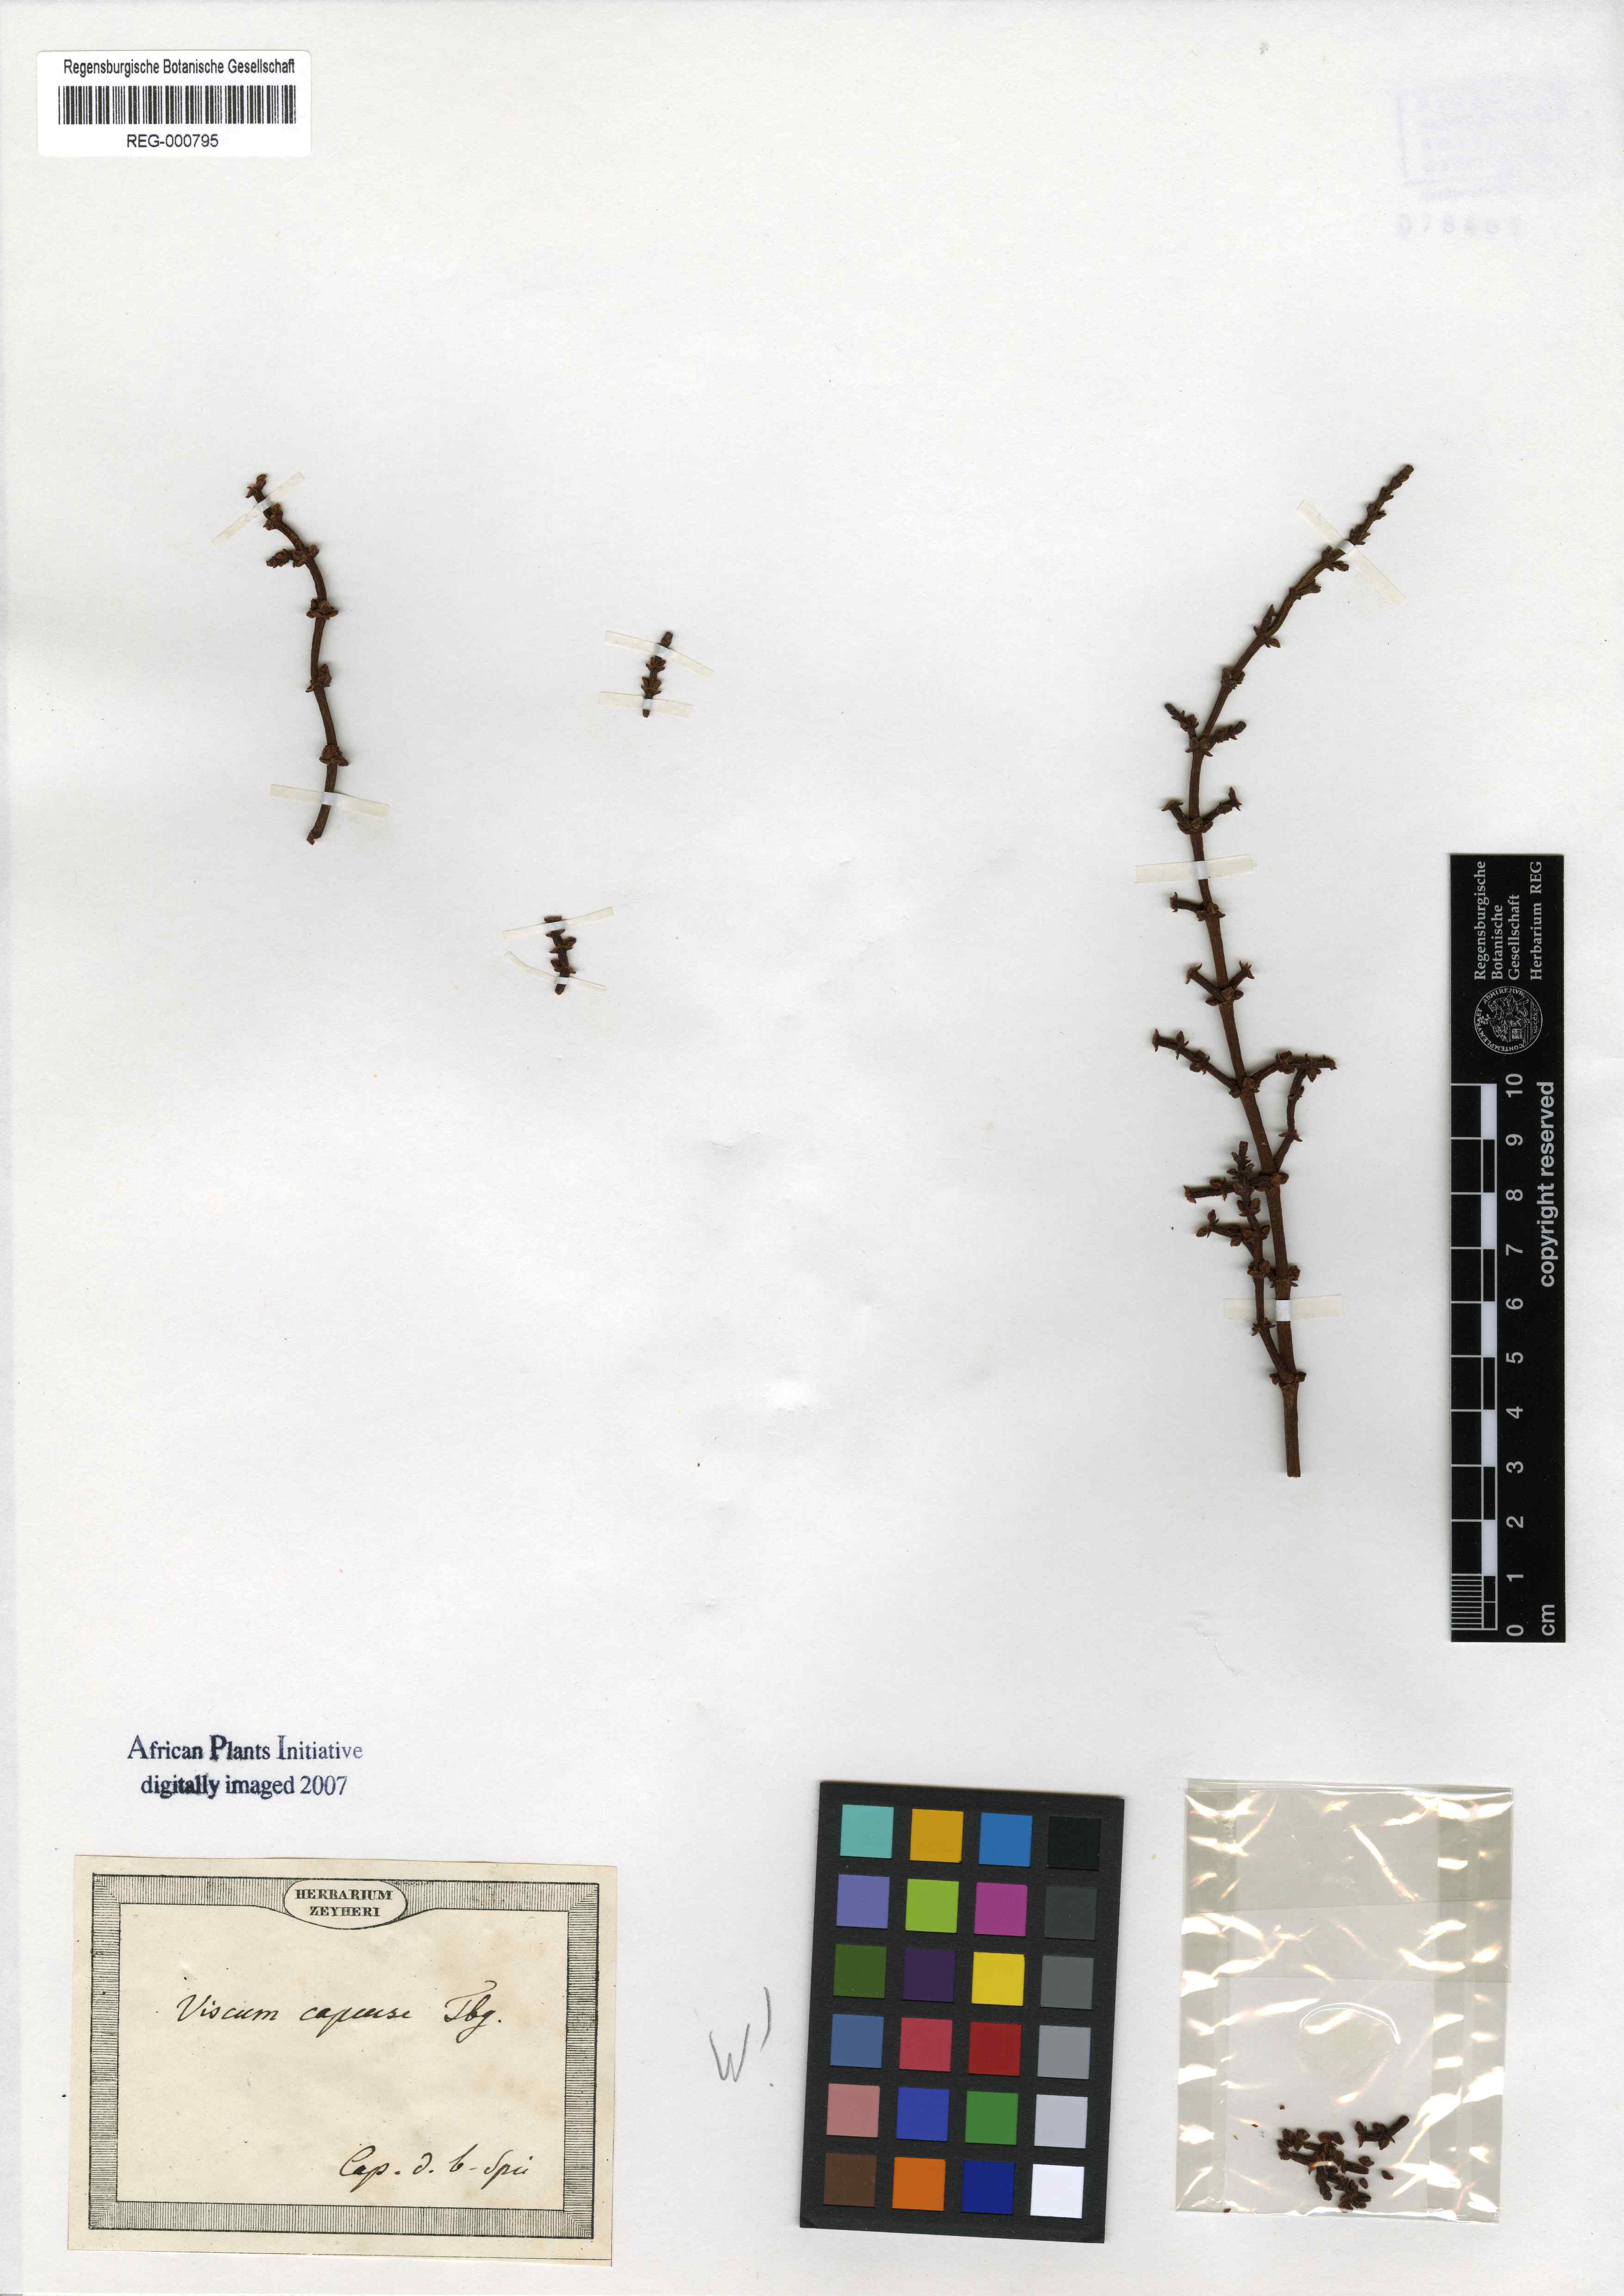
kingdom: Plantae
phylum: Tracheophyta
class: Magnoliopsida
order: Santalales
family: Viscaceae
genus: Viscum
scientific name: Viscum capense
